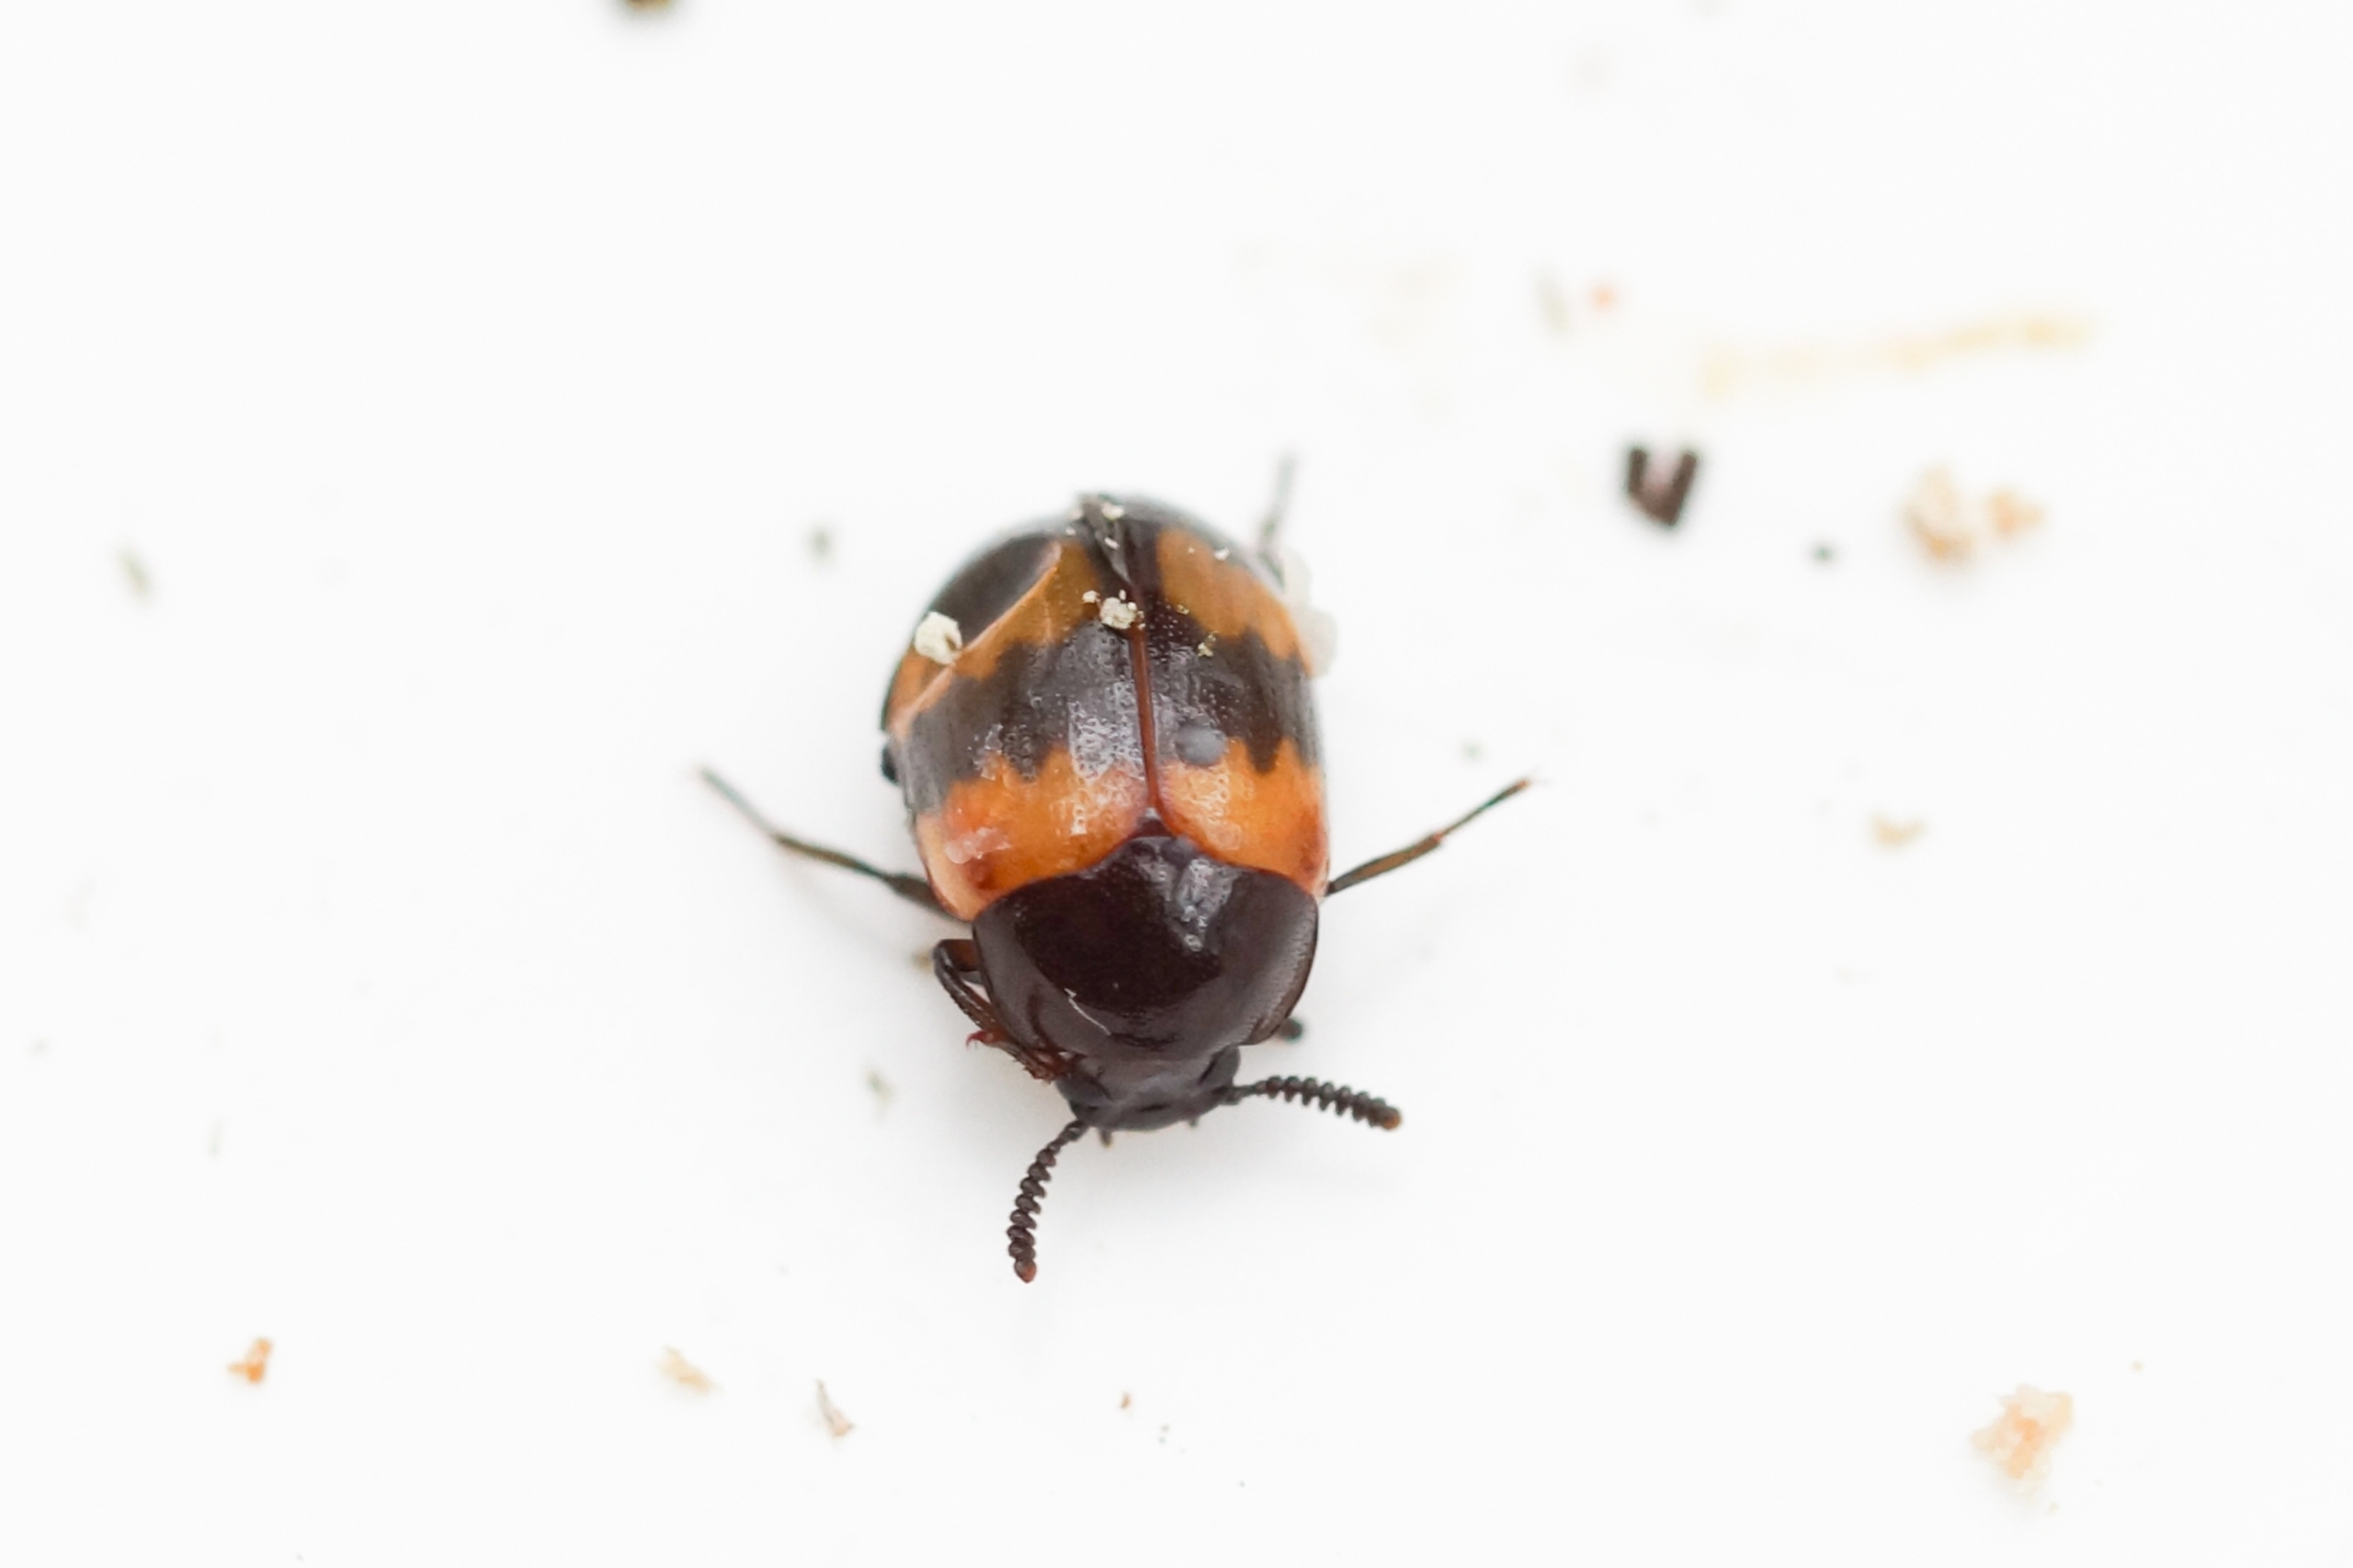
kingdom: Animalia
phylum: Arthropoda
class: Insecta
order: Coleoptera
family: Tenebrionidae
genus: Diaperis
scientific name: Diaperis boleti
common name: Tigerskyggebille
